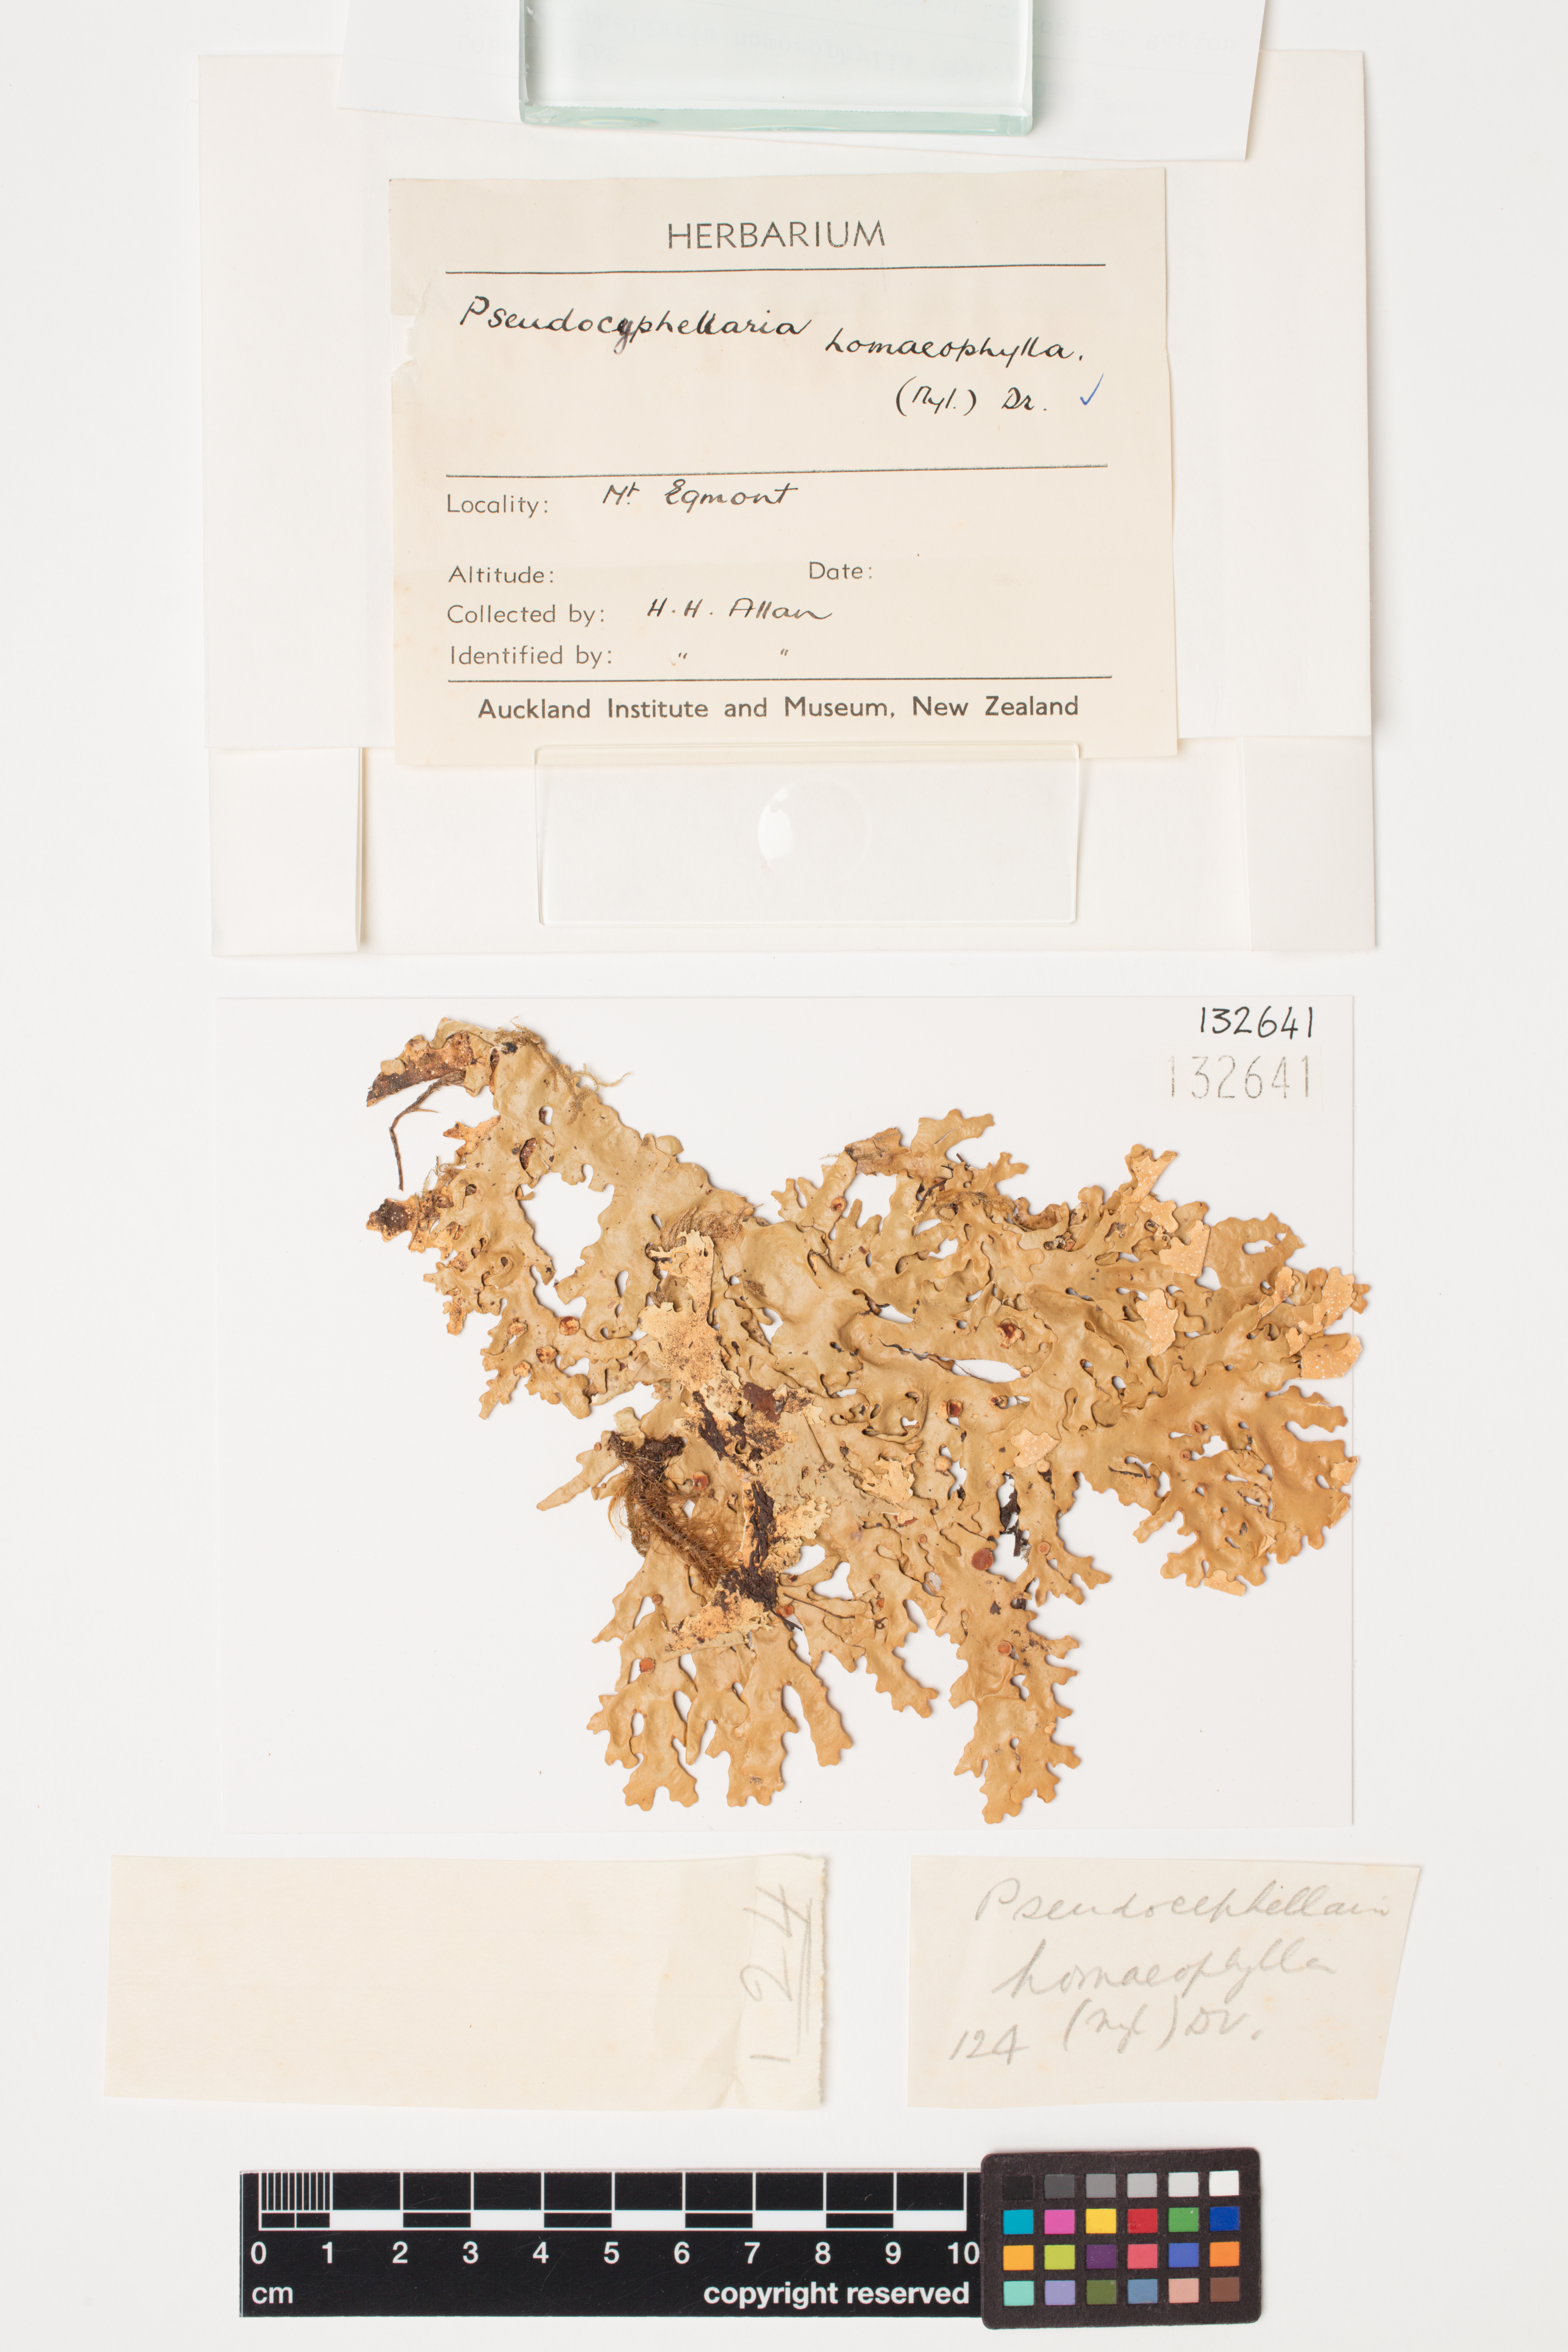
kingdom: Fungi
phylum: Ascomycota
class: Lecanoromycetes
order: Peltigerales
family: Lobariaceae
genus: Pseudocyphellaria
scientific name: Pseudocyphellaria homeophylla
